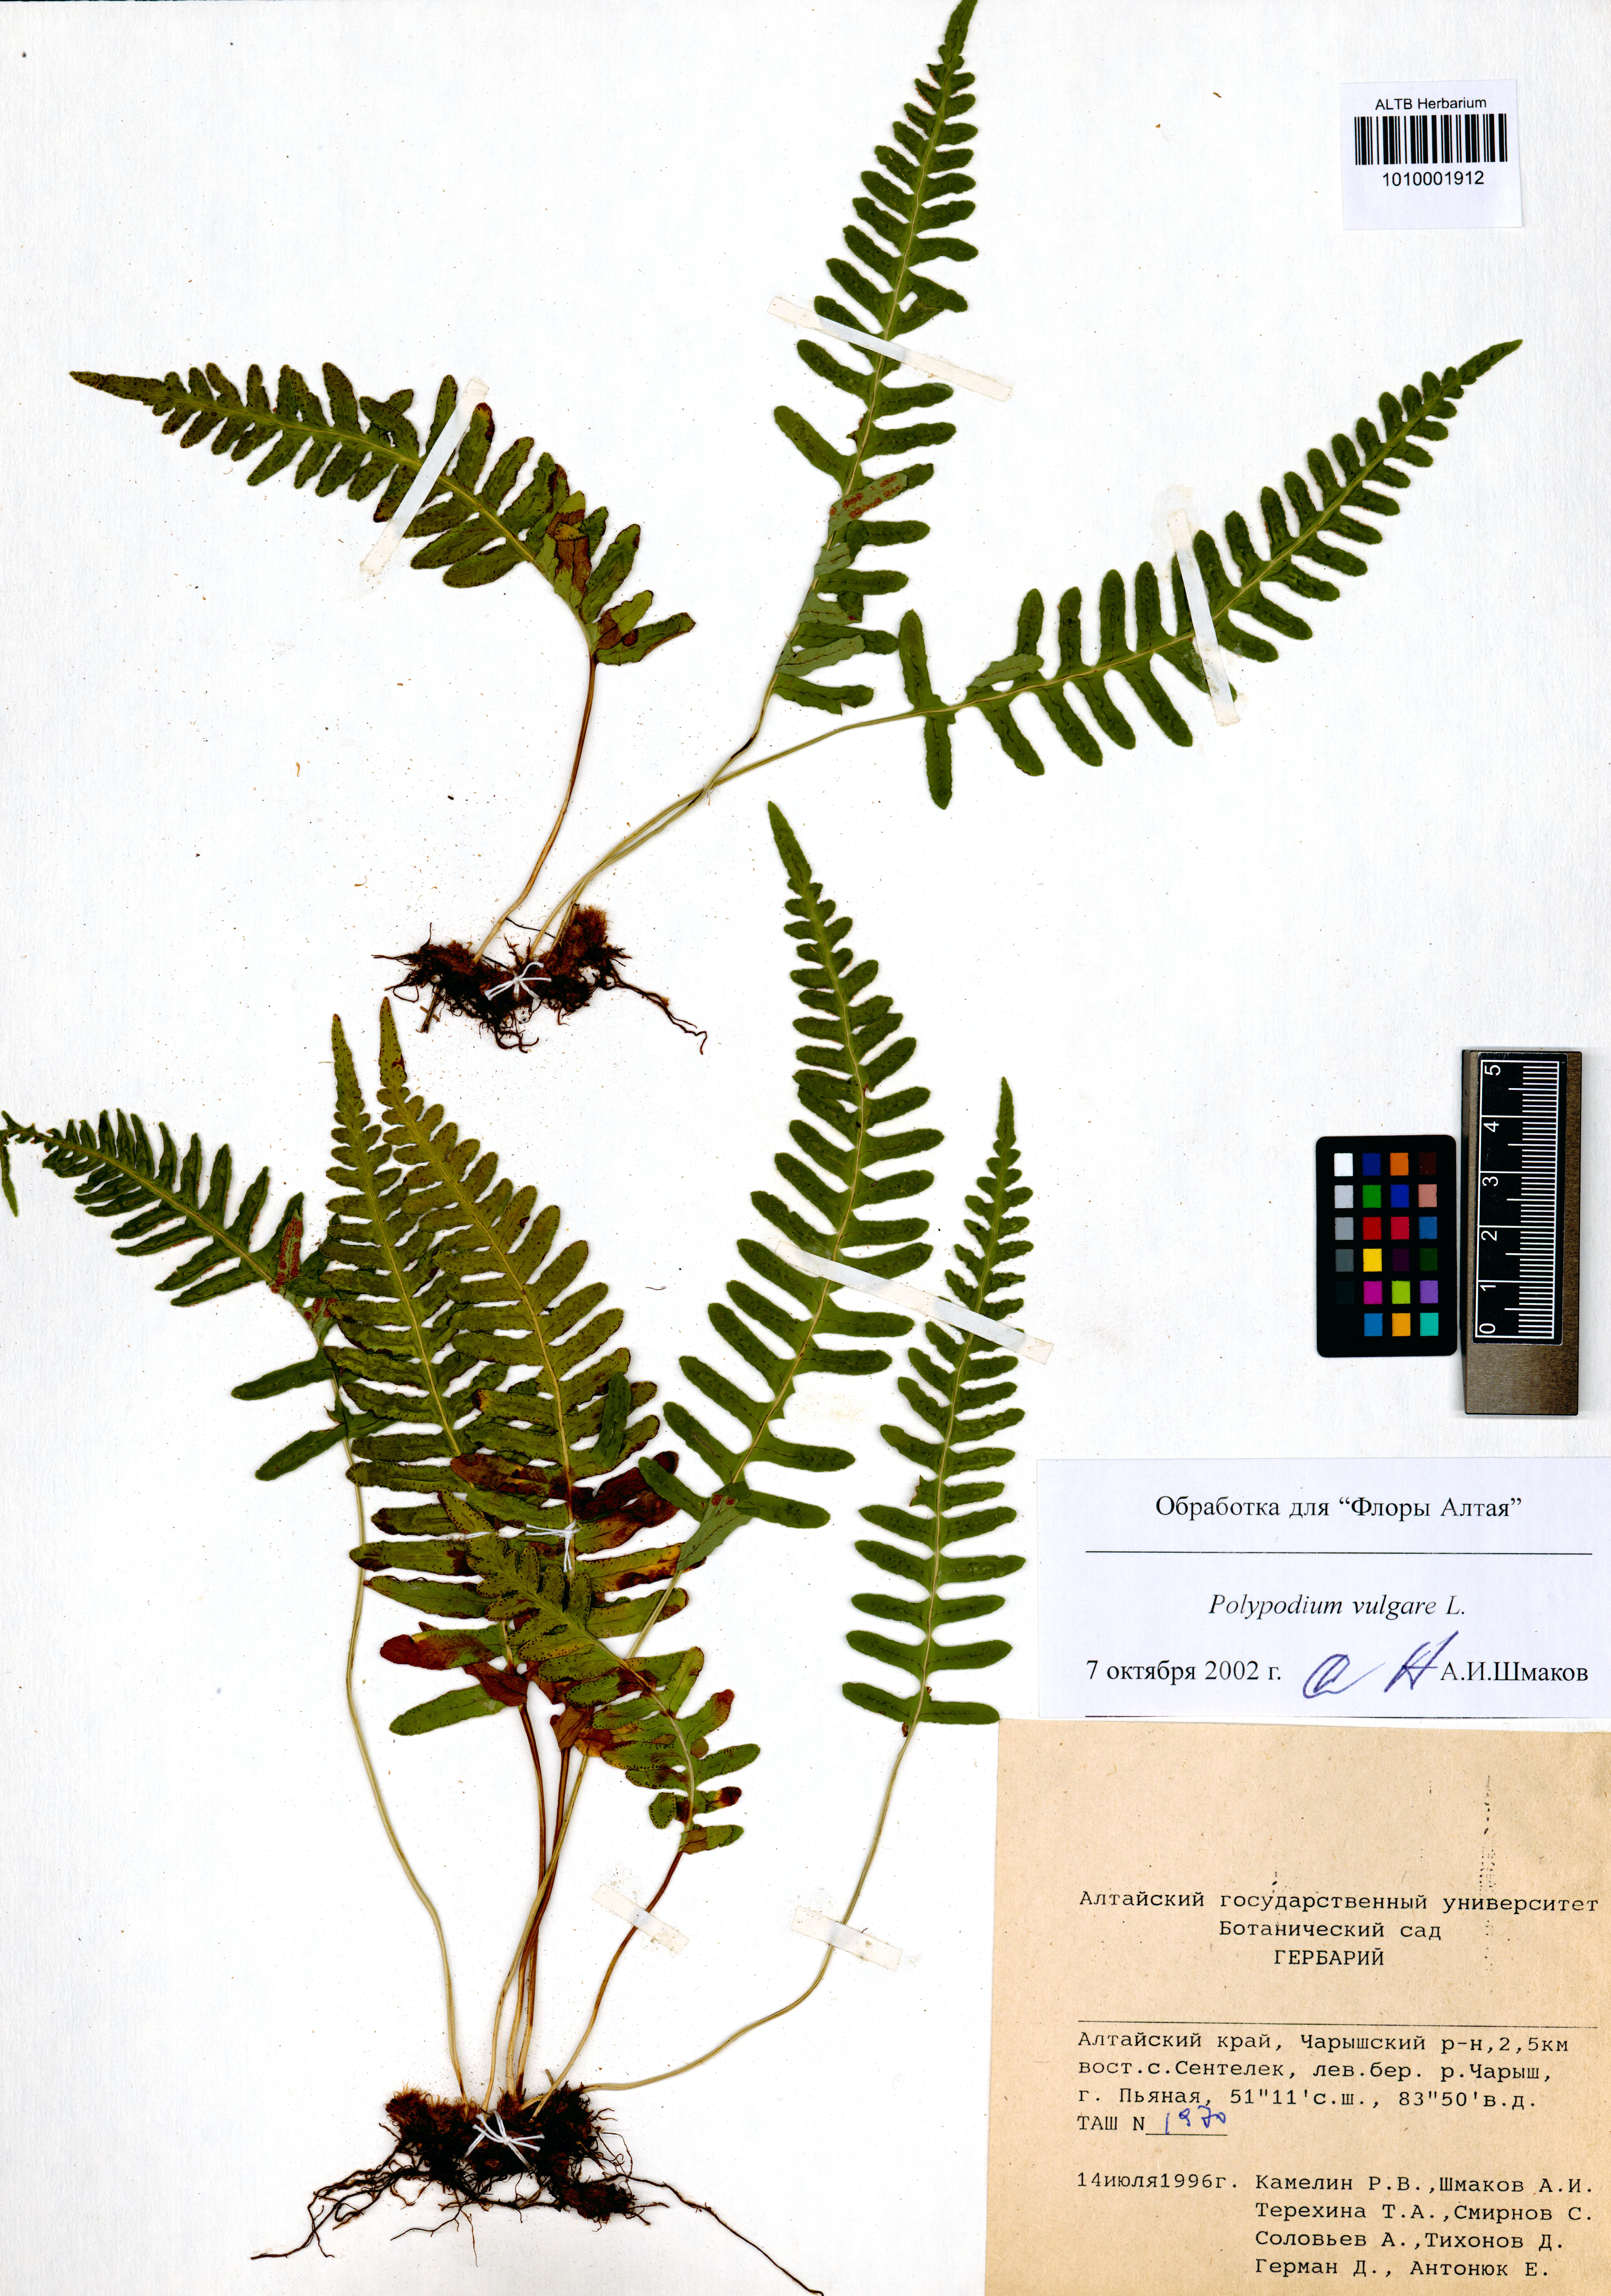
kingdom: Plantae
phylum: Tracheophyta
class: Polypodiopsida
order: Polypodiales
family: Polypodiaceae
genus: Polypodium
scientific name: Polypodium vulgare
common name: Common polypody
